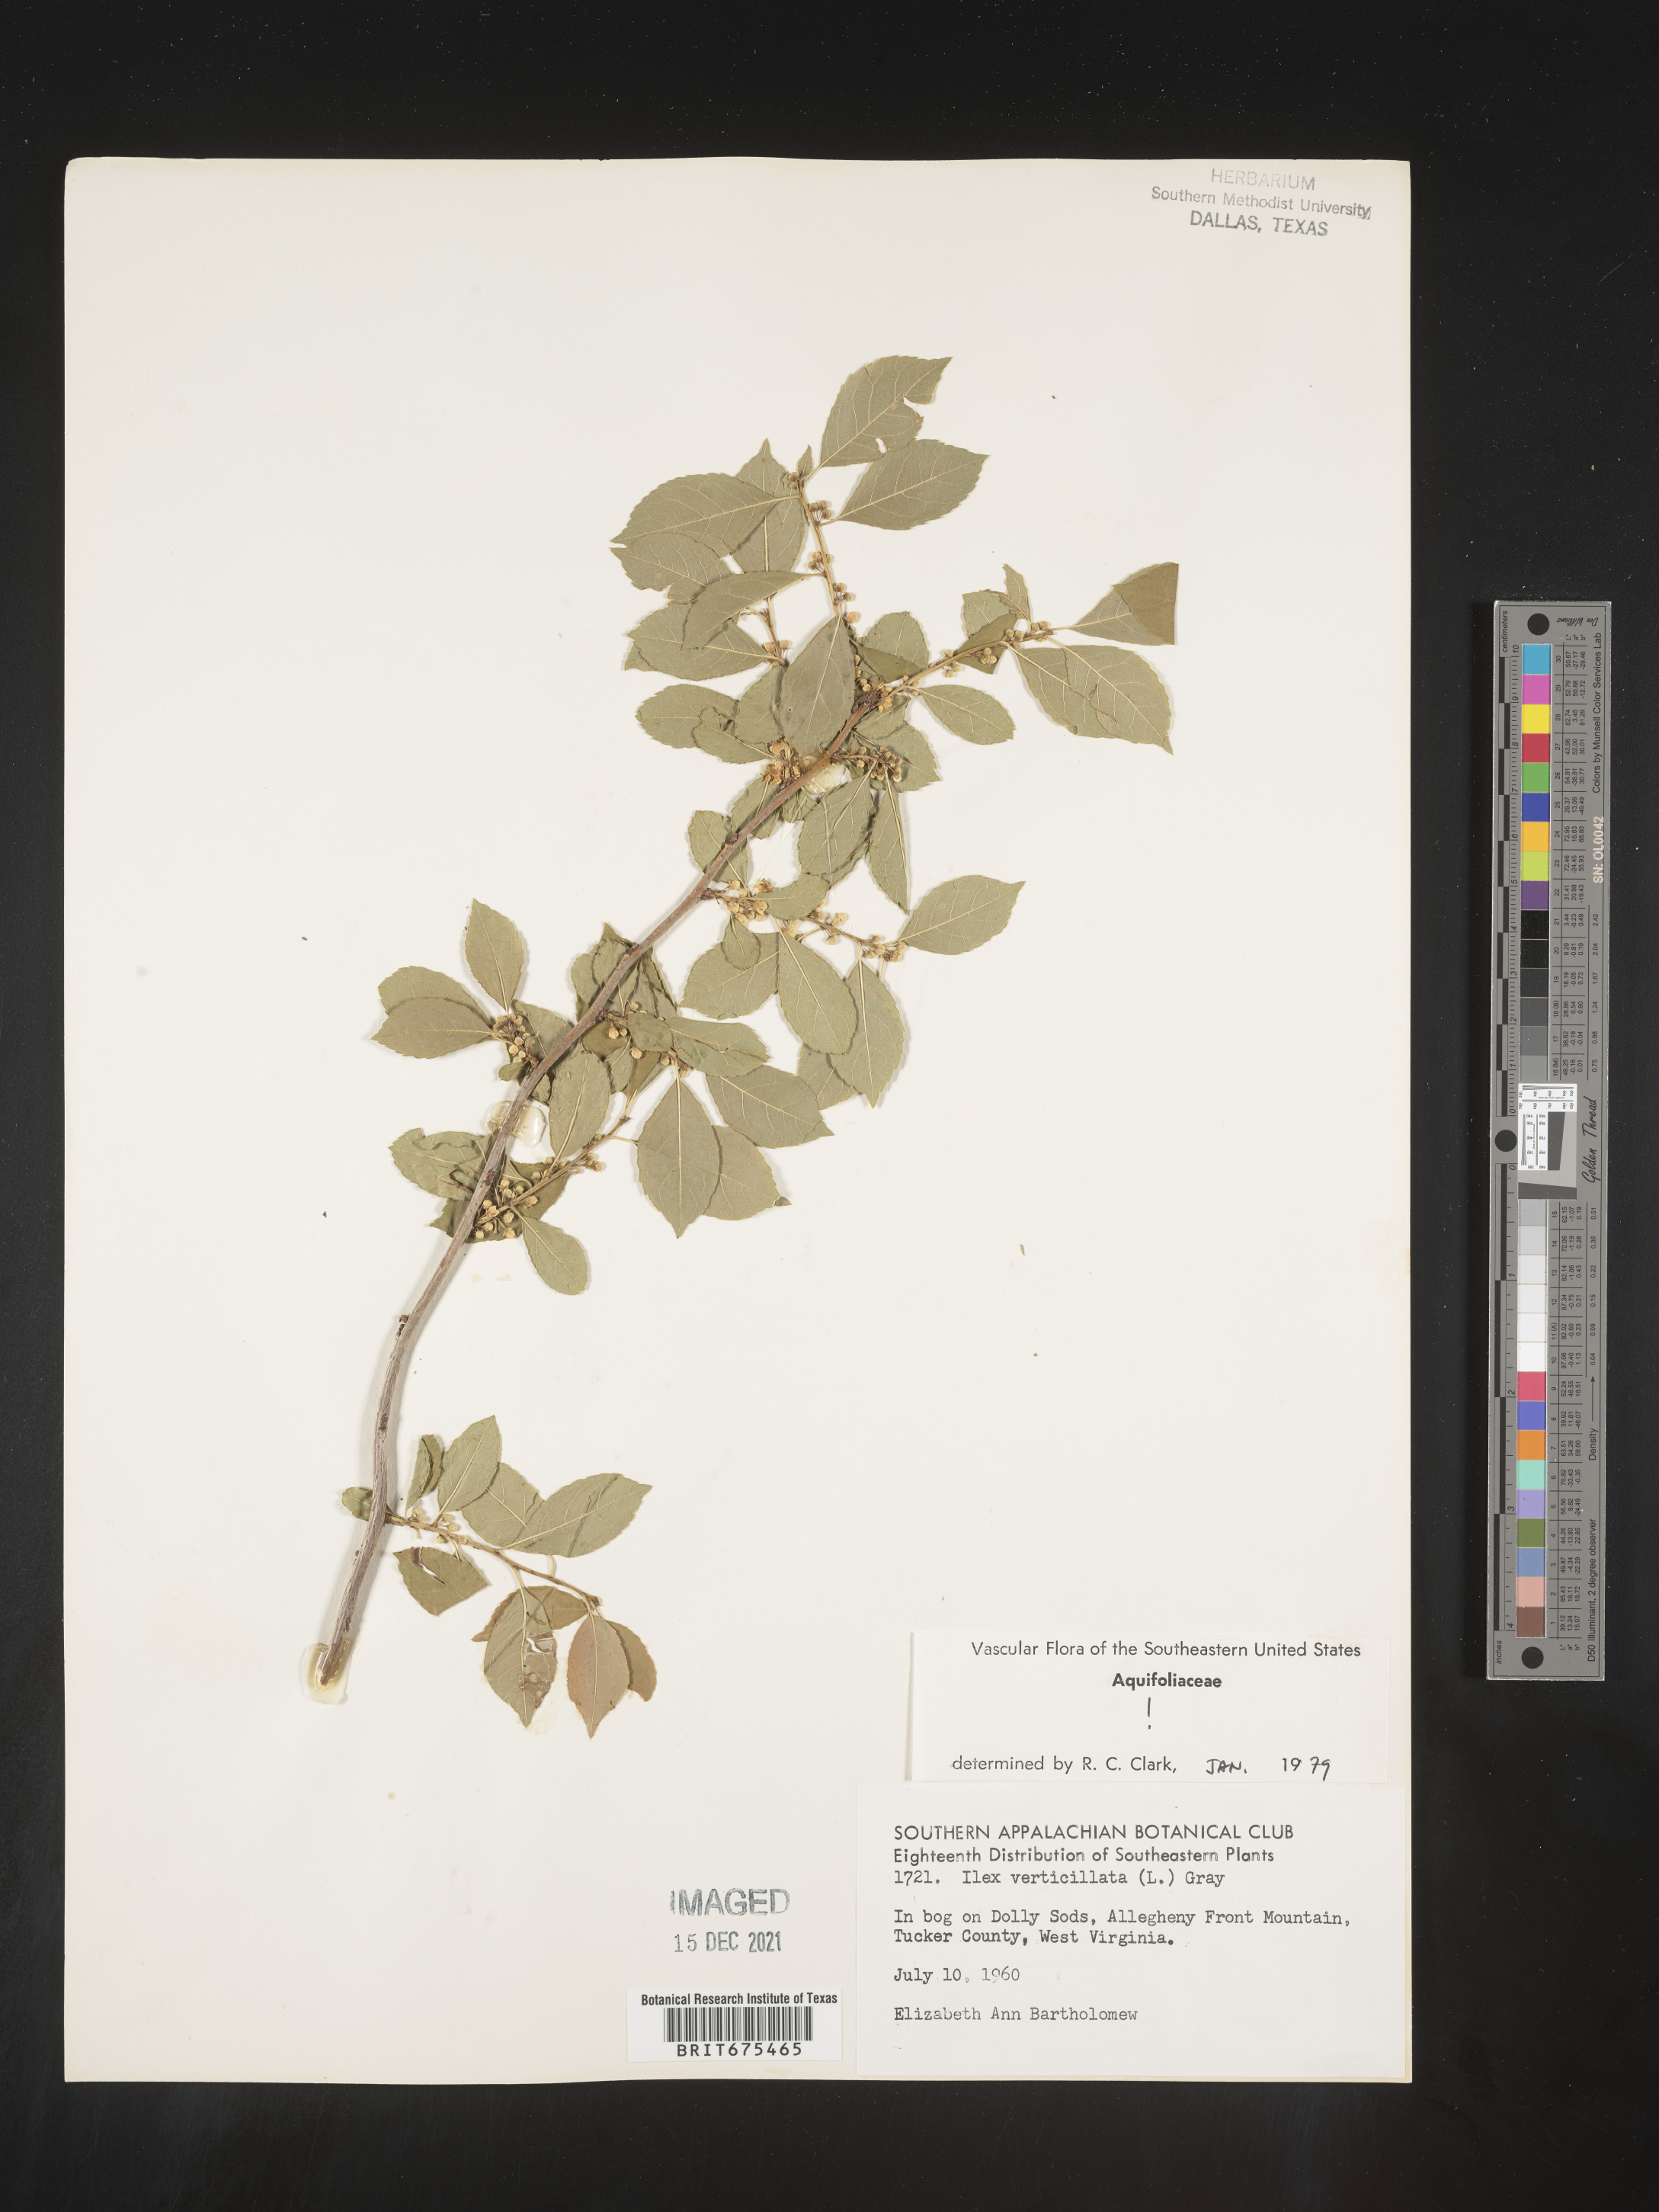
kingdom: Plantae
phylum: Tracheophyta
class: Magnoliopsida
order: Aquifoliales
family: Aquifoliaceae
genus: Ilex
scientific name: Ilex verticillata
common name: Virginia winterberry
